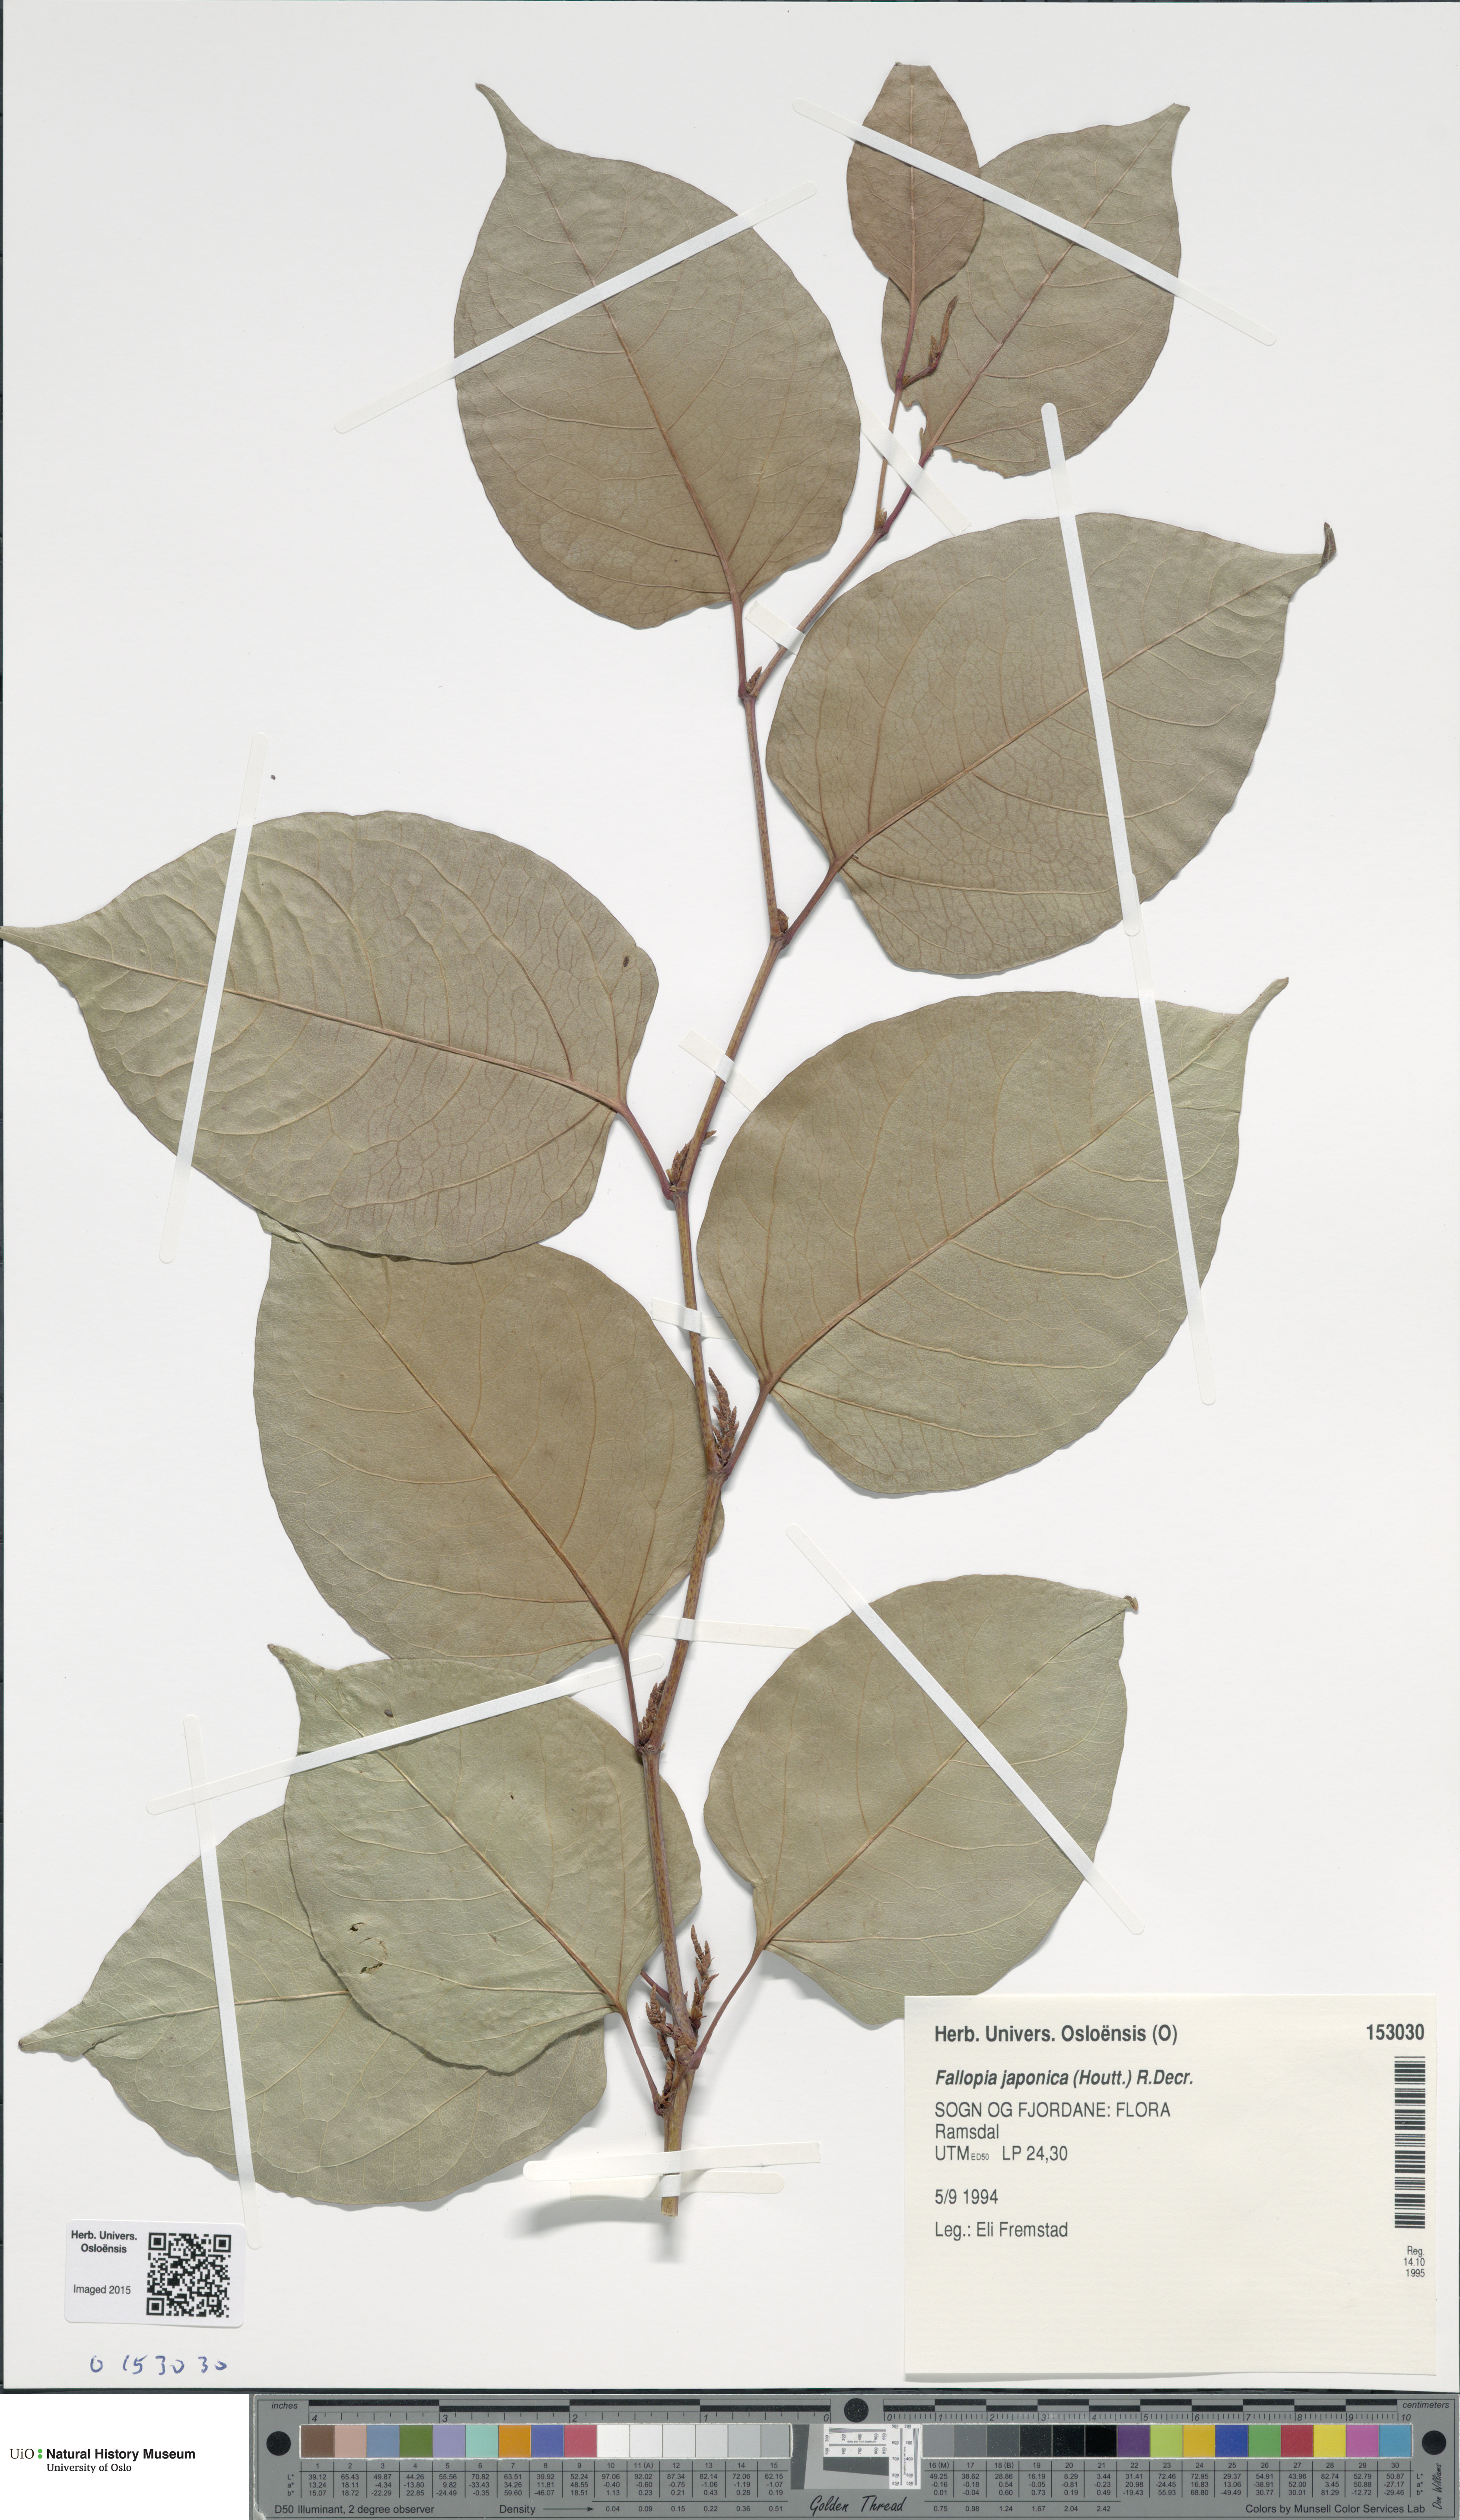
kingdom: Plantae
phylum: Tracheophyta
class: Magnoliopsida
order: Caryophyllales
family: Polygonaceae
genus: Reynoutria
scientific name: Reynoutria japonica
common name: Japanese knotweed
